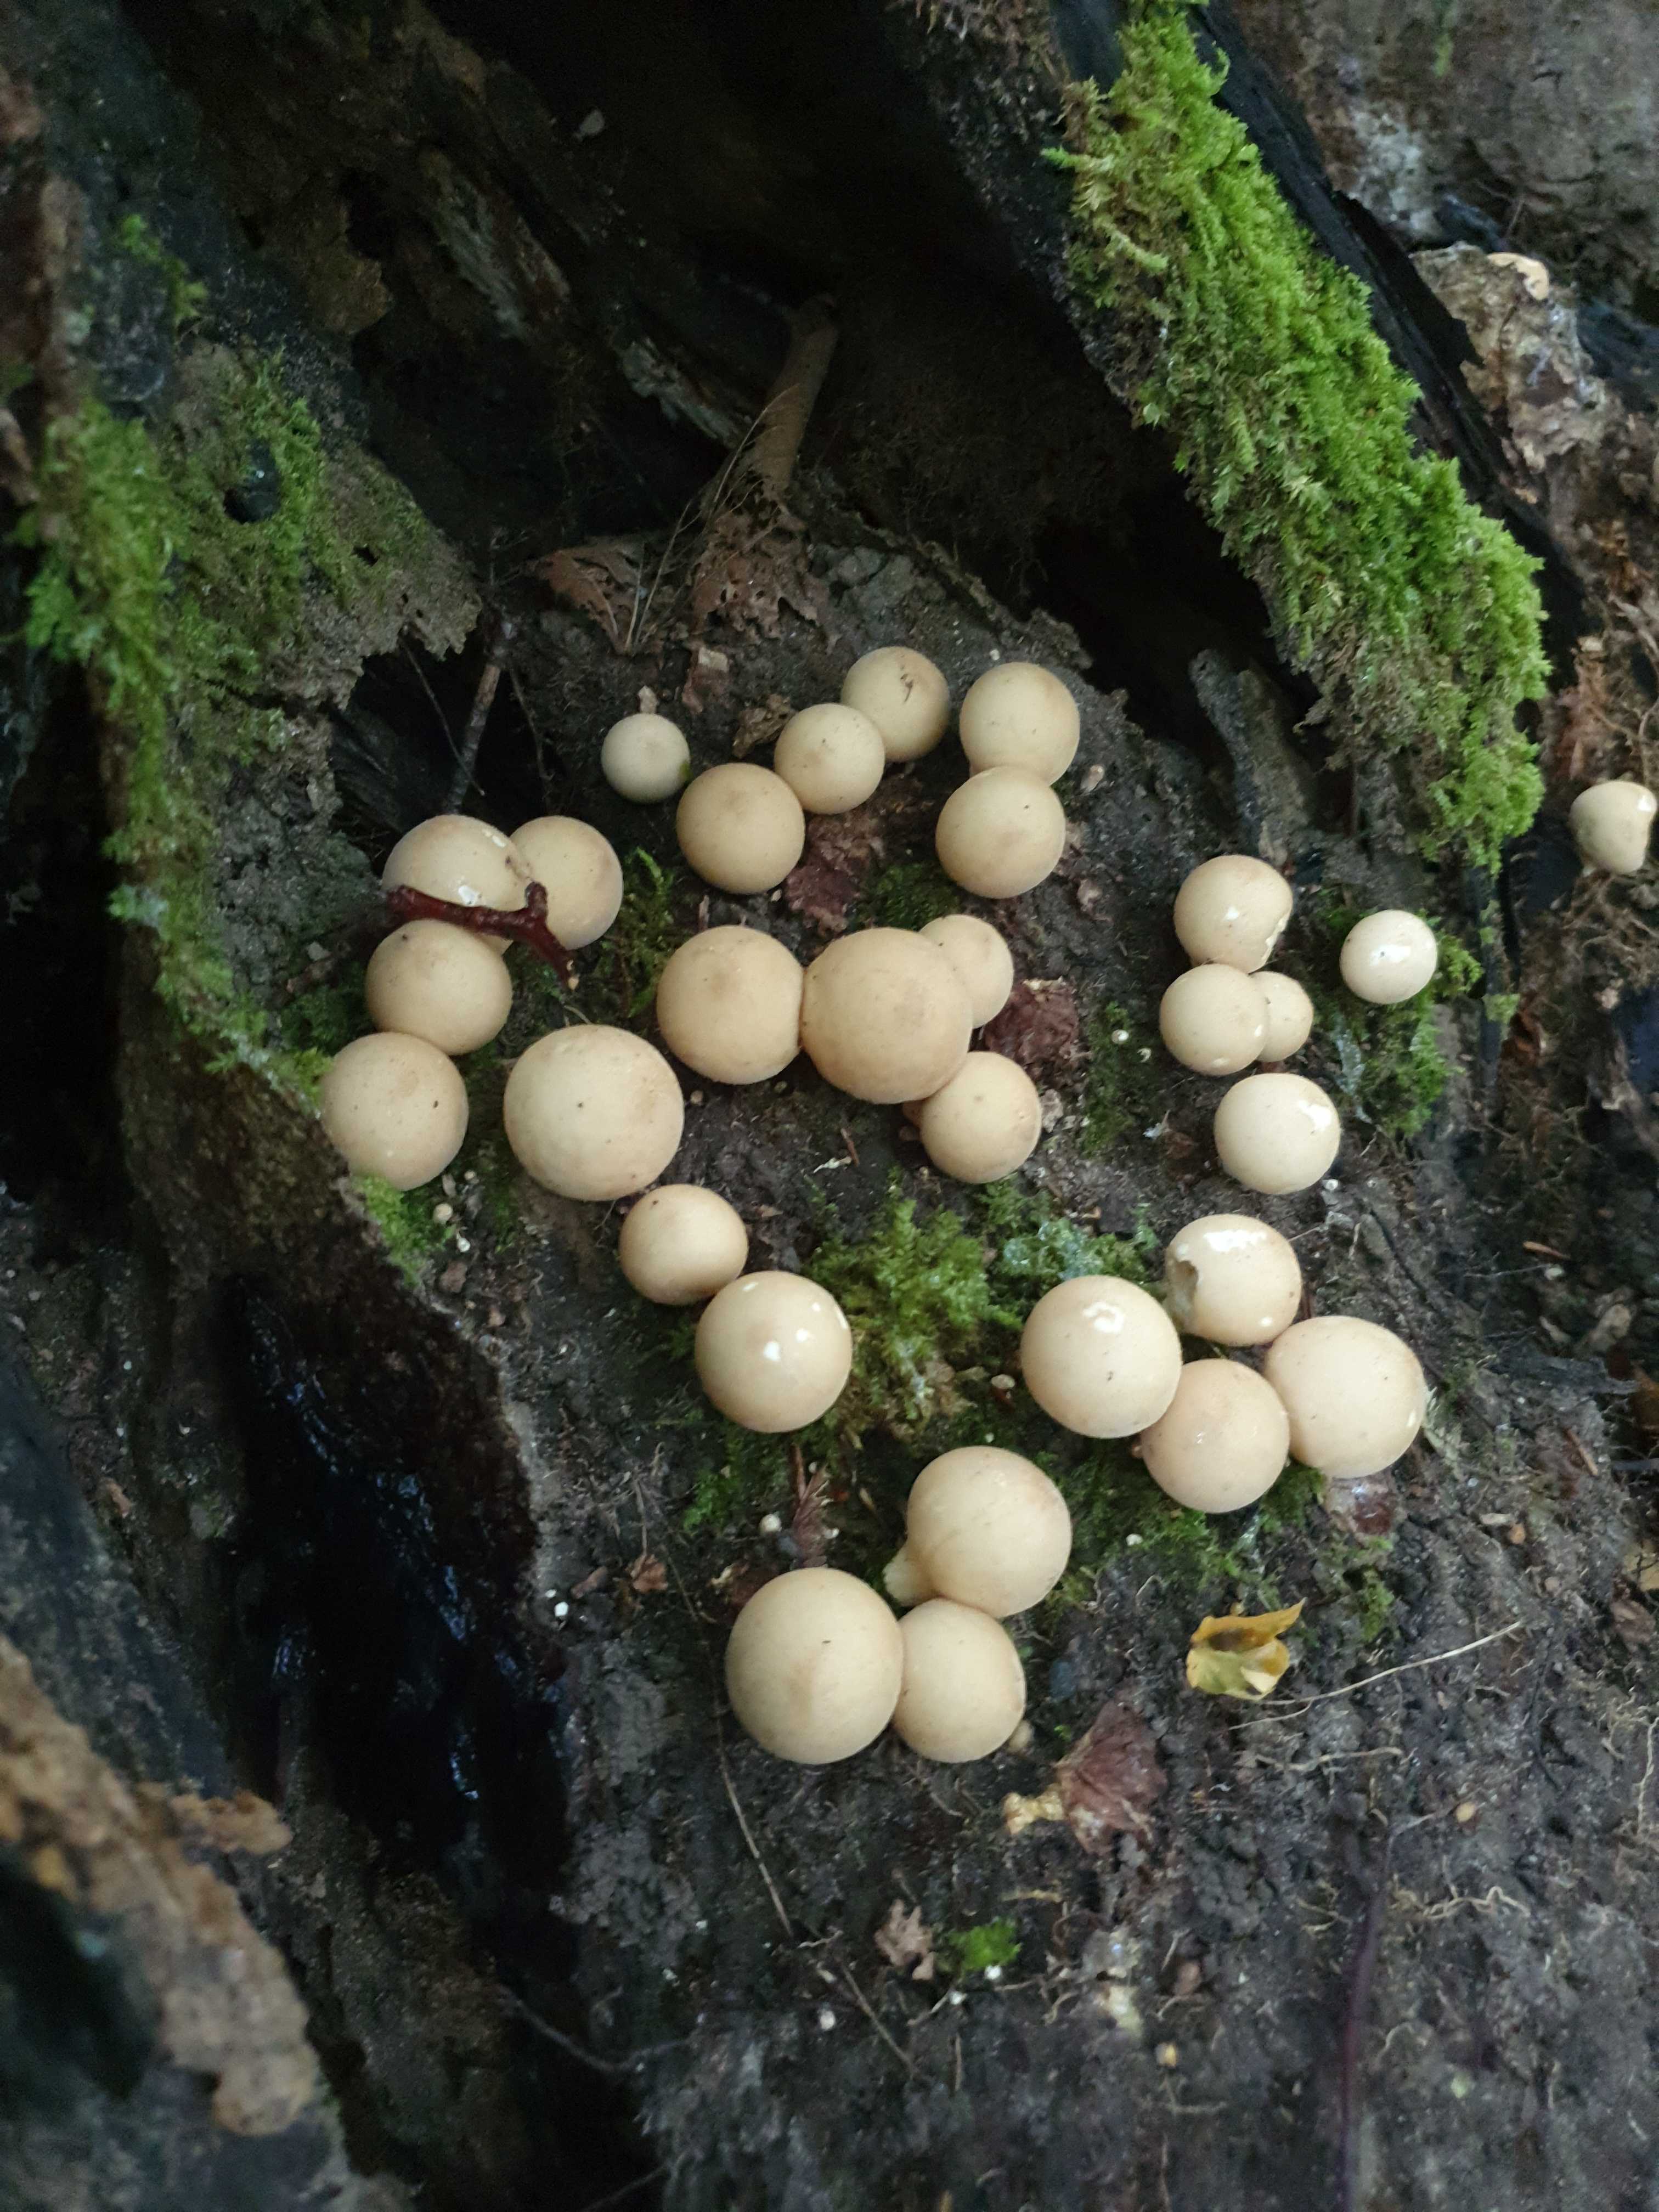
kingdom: Fungi
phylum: Basidiomycota
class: Agaricomycetes
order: Agaricales
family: Lycoperdaceae
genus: Apioperdon
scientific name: Apioperdon pyriforme
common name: pære-støvbold
